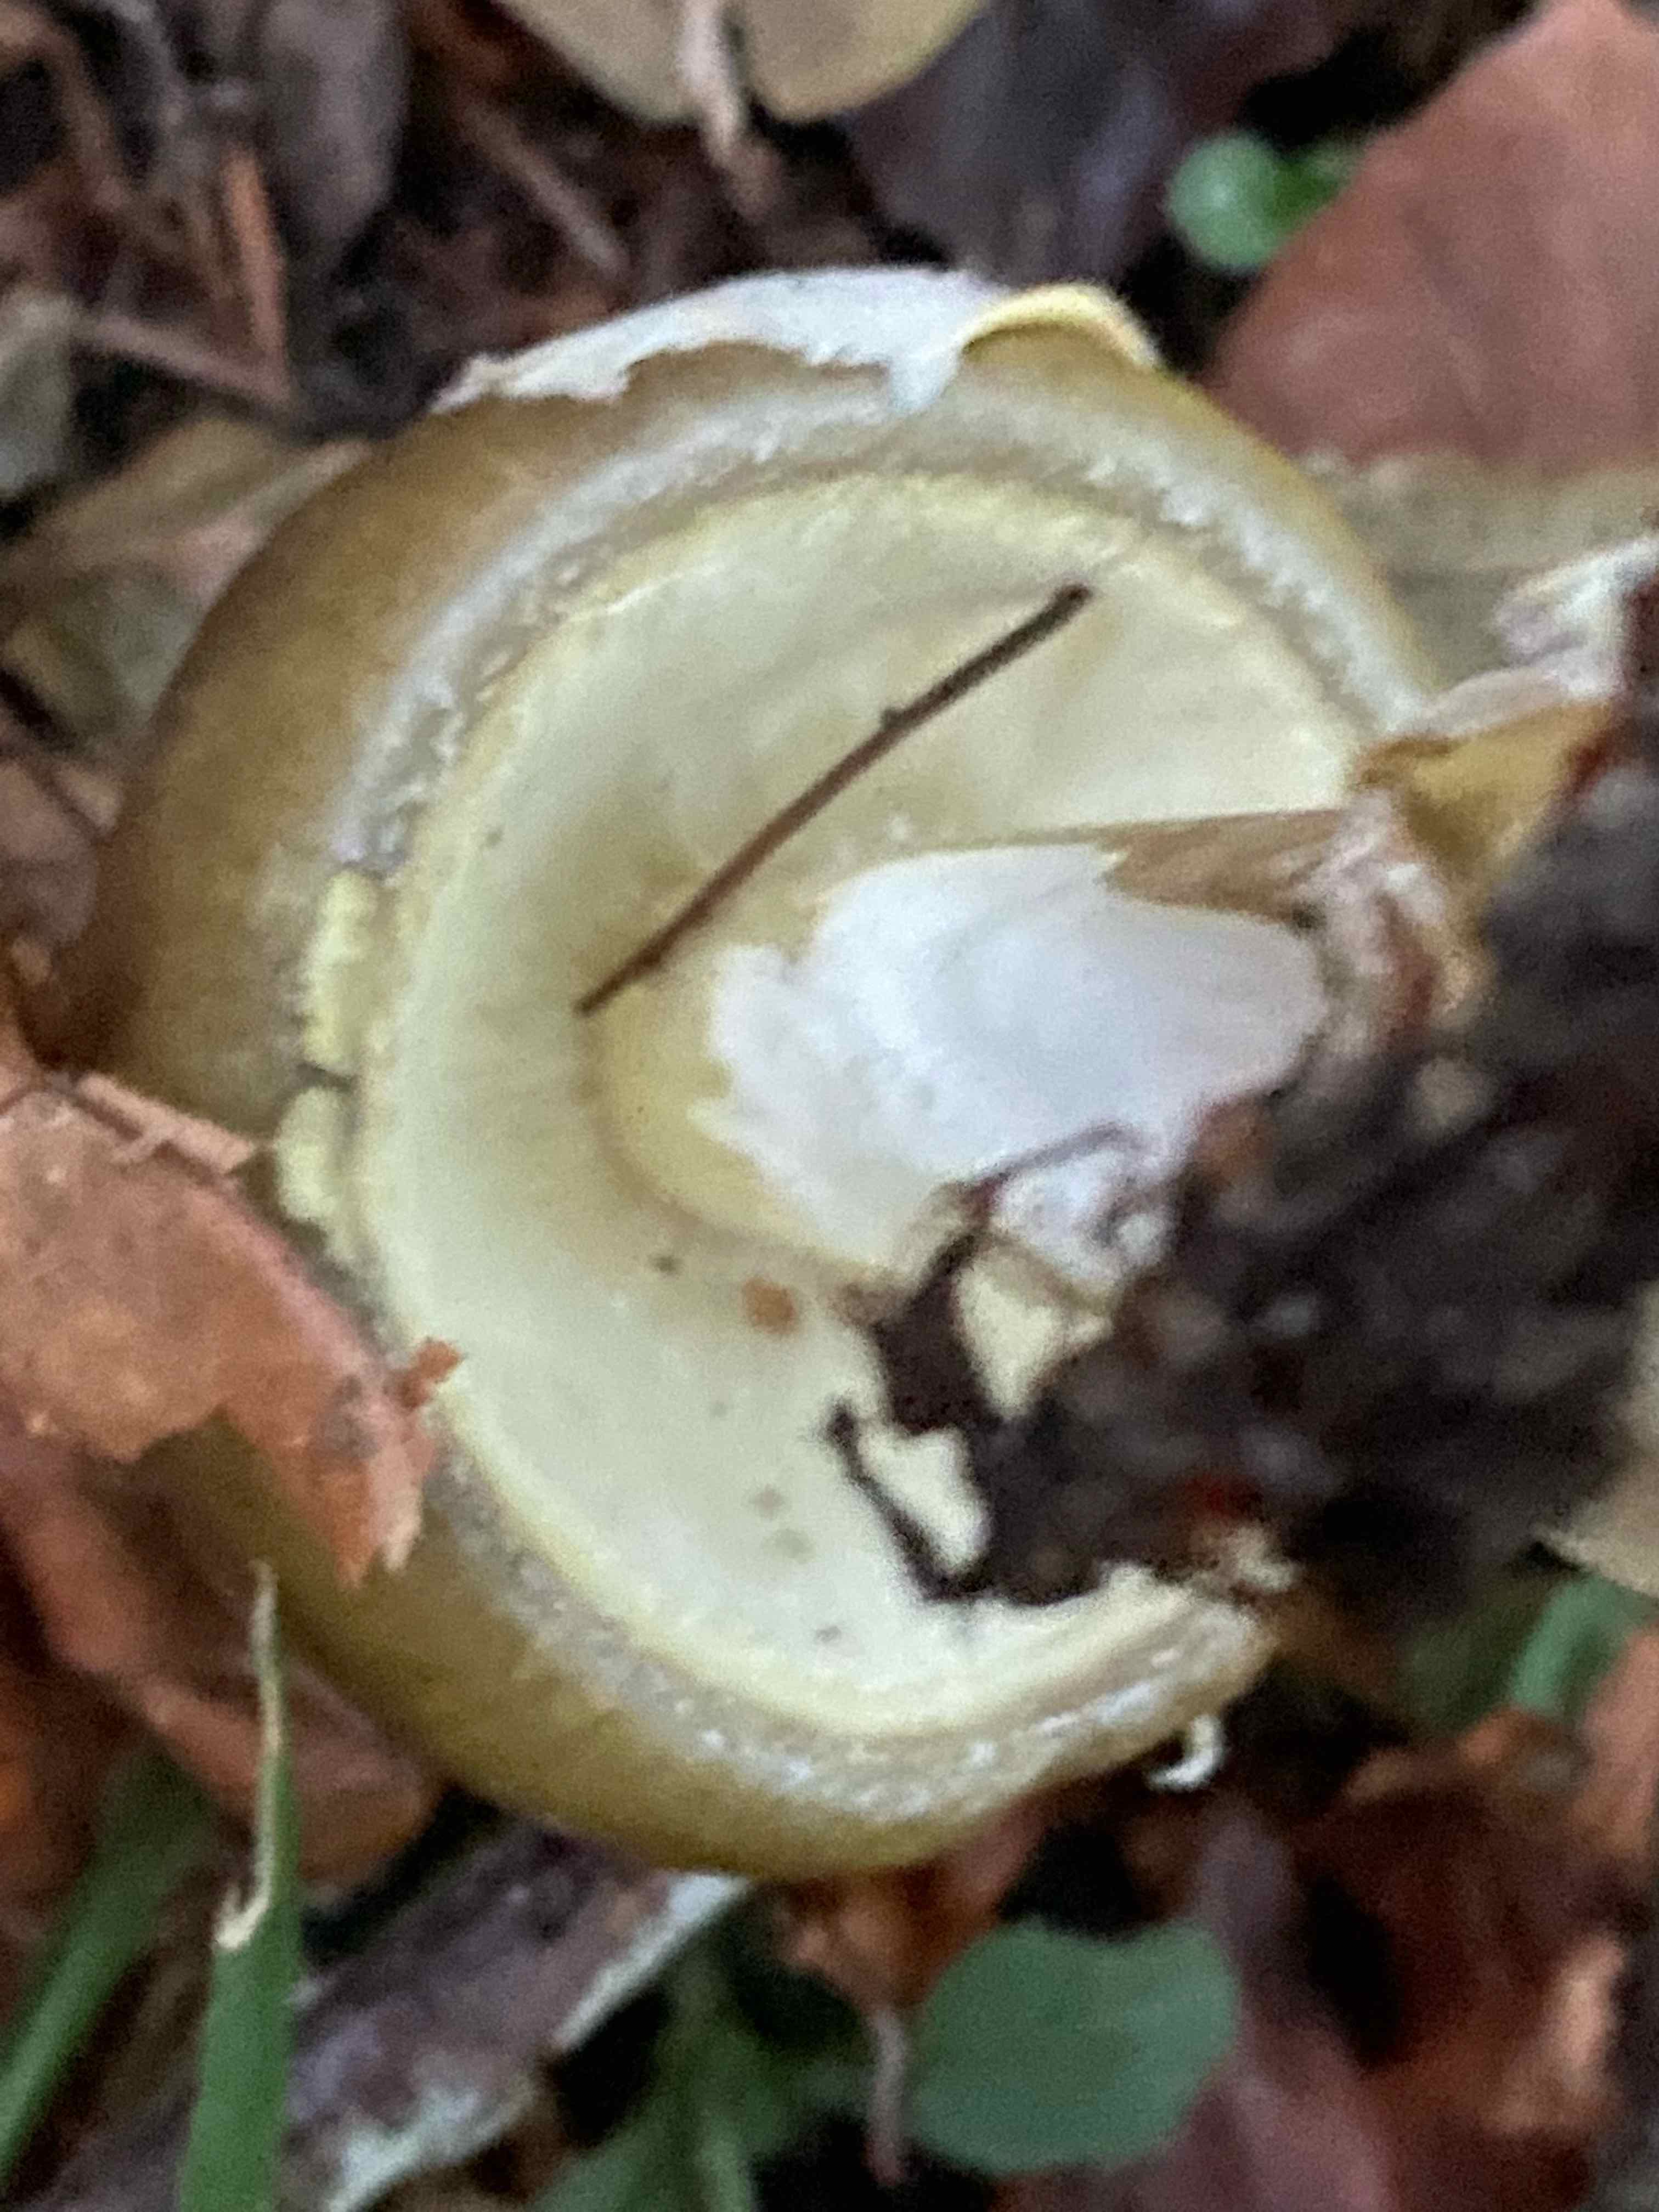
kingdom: Fungi
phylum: Basidiomycota
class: Agaricomycetes
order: Agaricales
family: Amanitaceae
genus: Amanita
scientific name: Amanita phalloides
